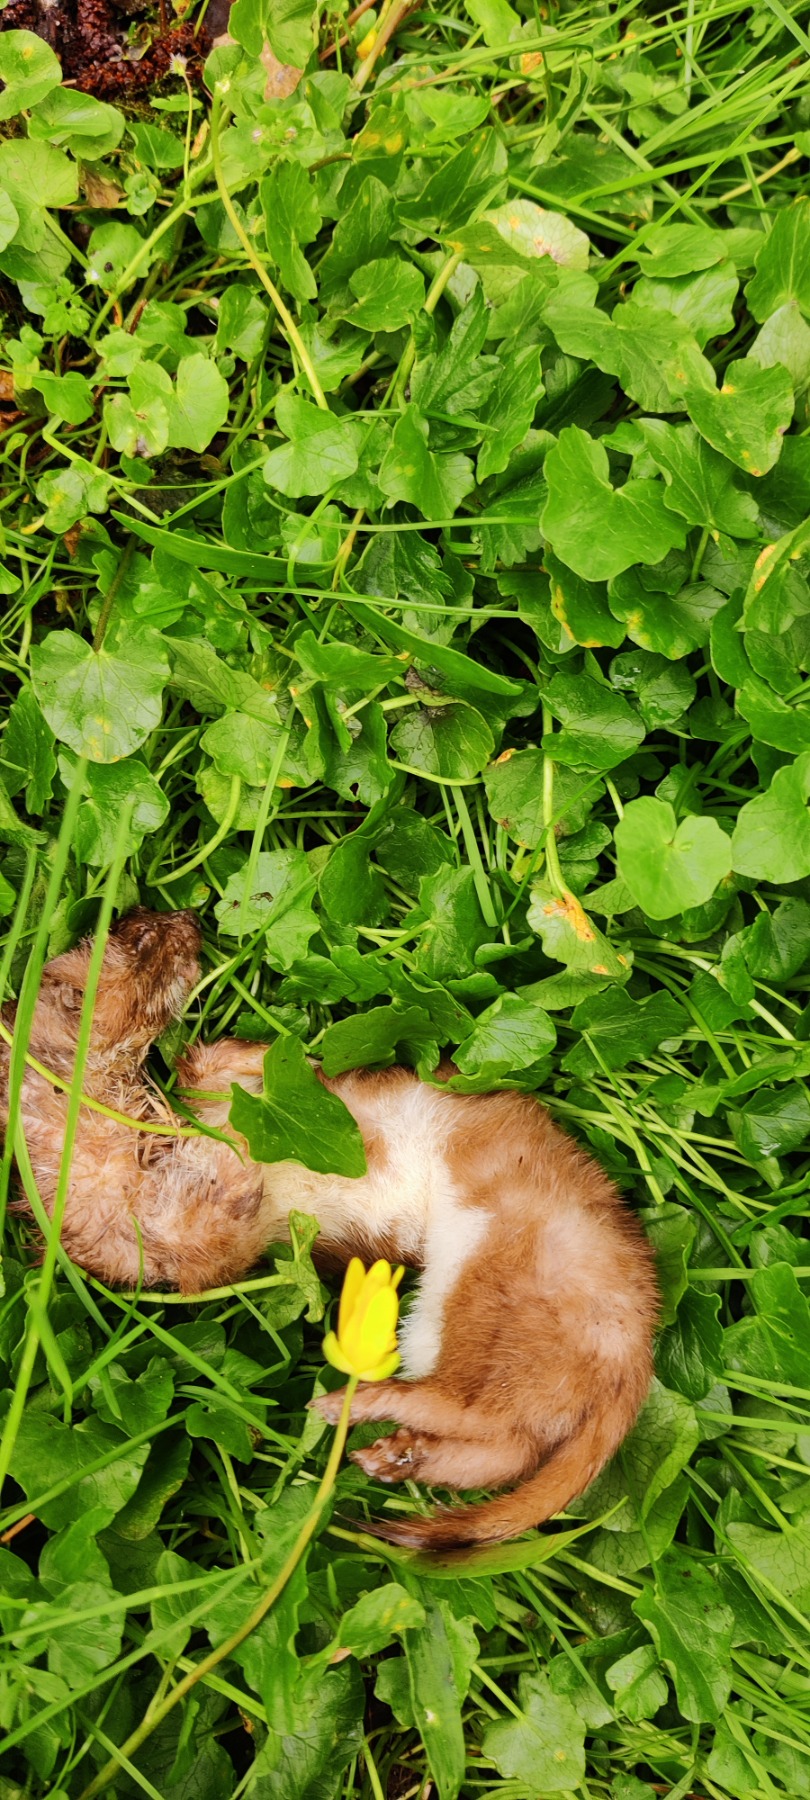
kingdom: Animalia
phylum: Chordata
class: Mammalia
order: Carnivora
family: Mustelidae
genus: Mustela
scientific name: Mustela nivalis
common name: Brud
